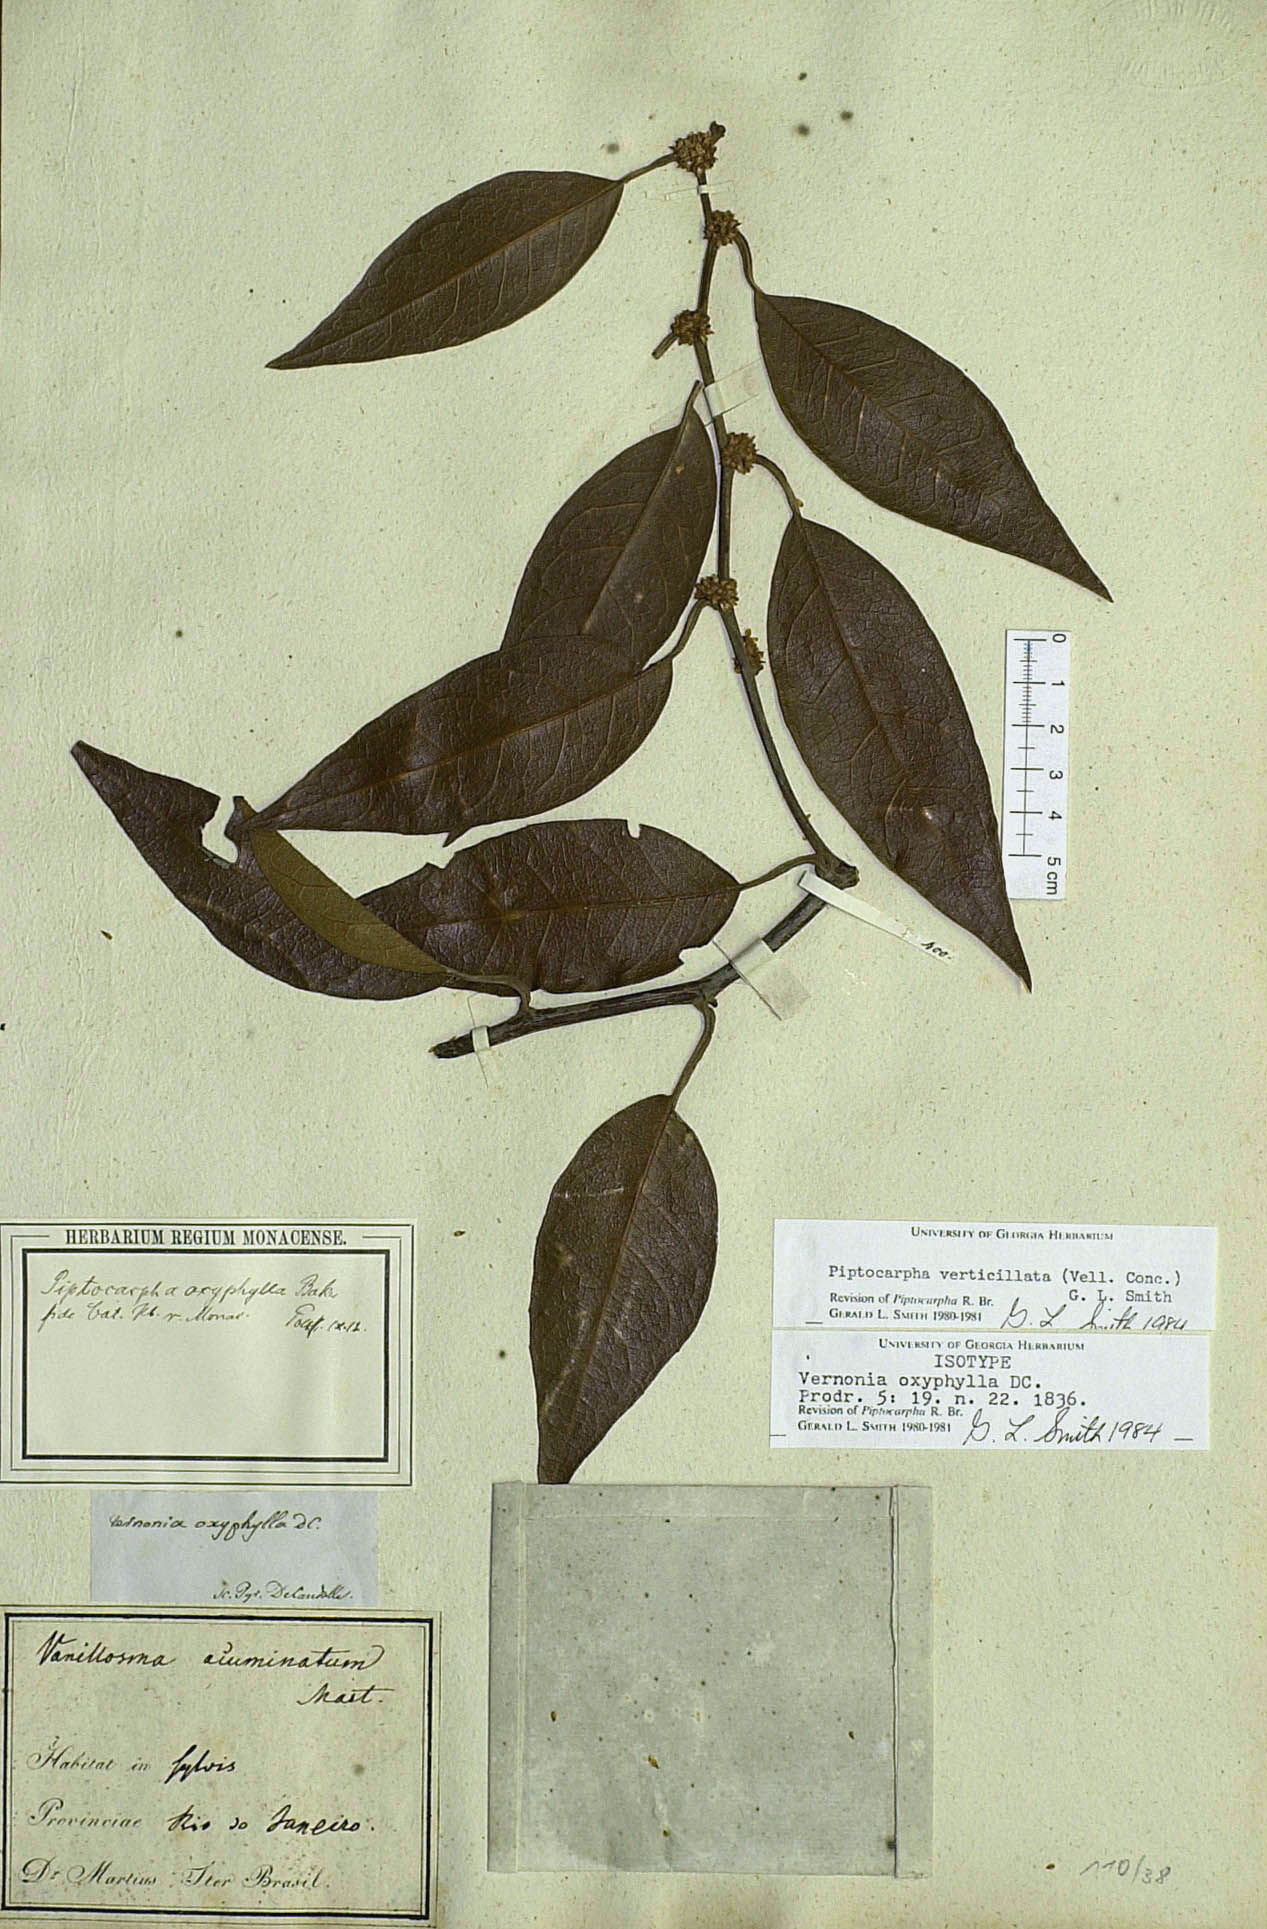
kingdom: Plantae
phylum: Tracheophyta
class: Magnoliopsida
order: Asterales
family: Asteraceae
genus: Piptocarpha
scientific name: Piptocarpha verticillata
